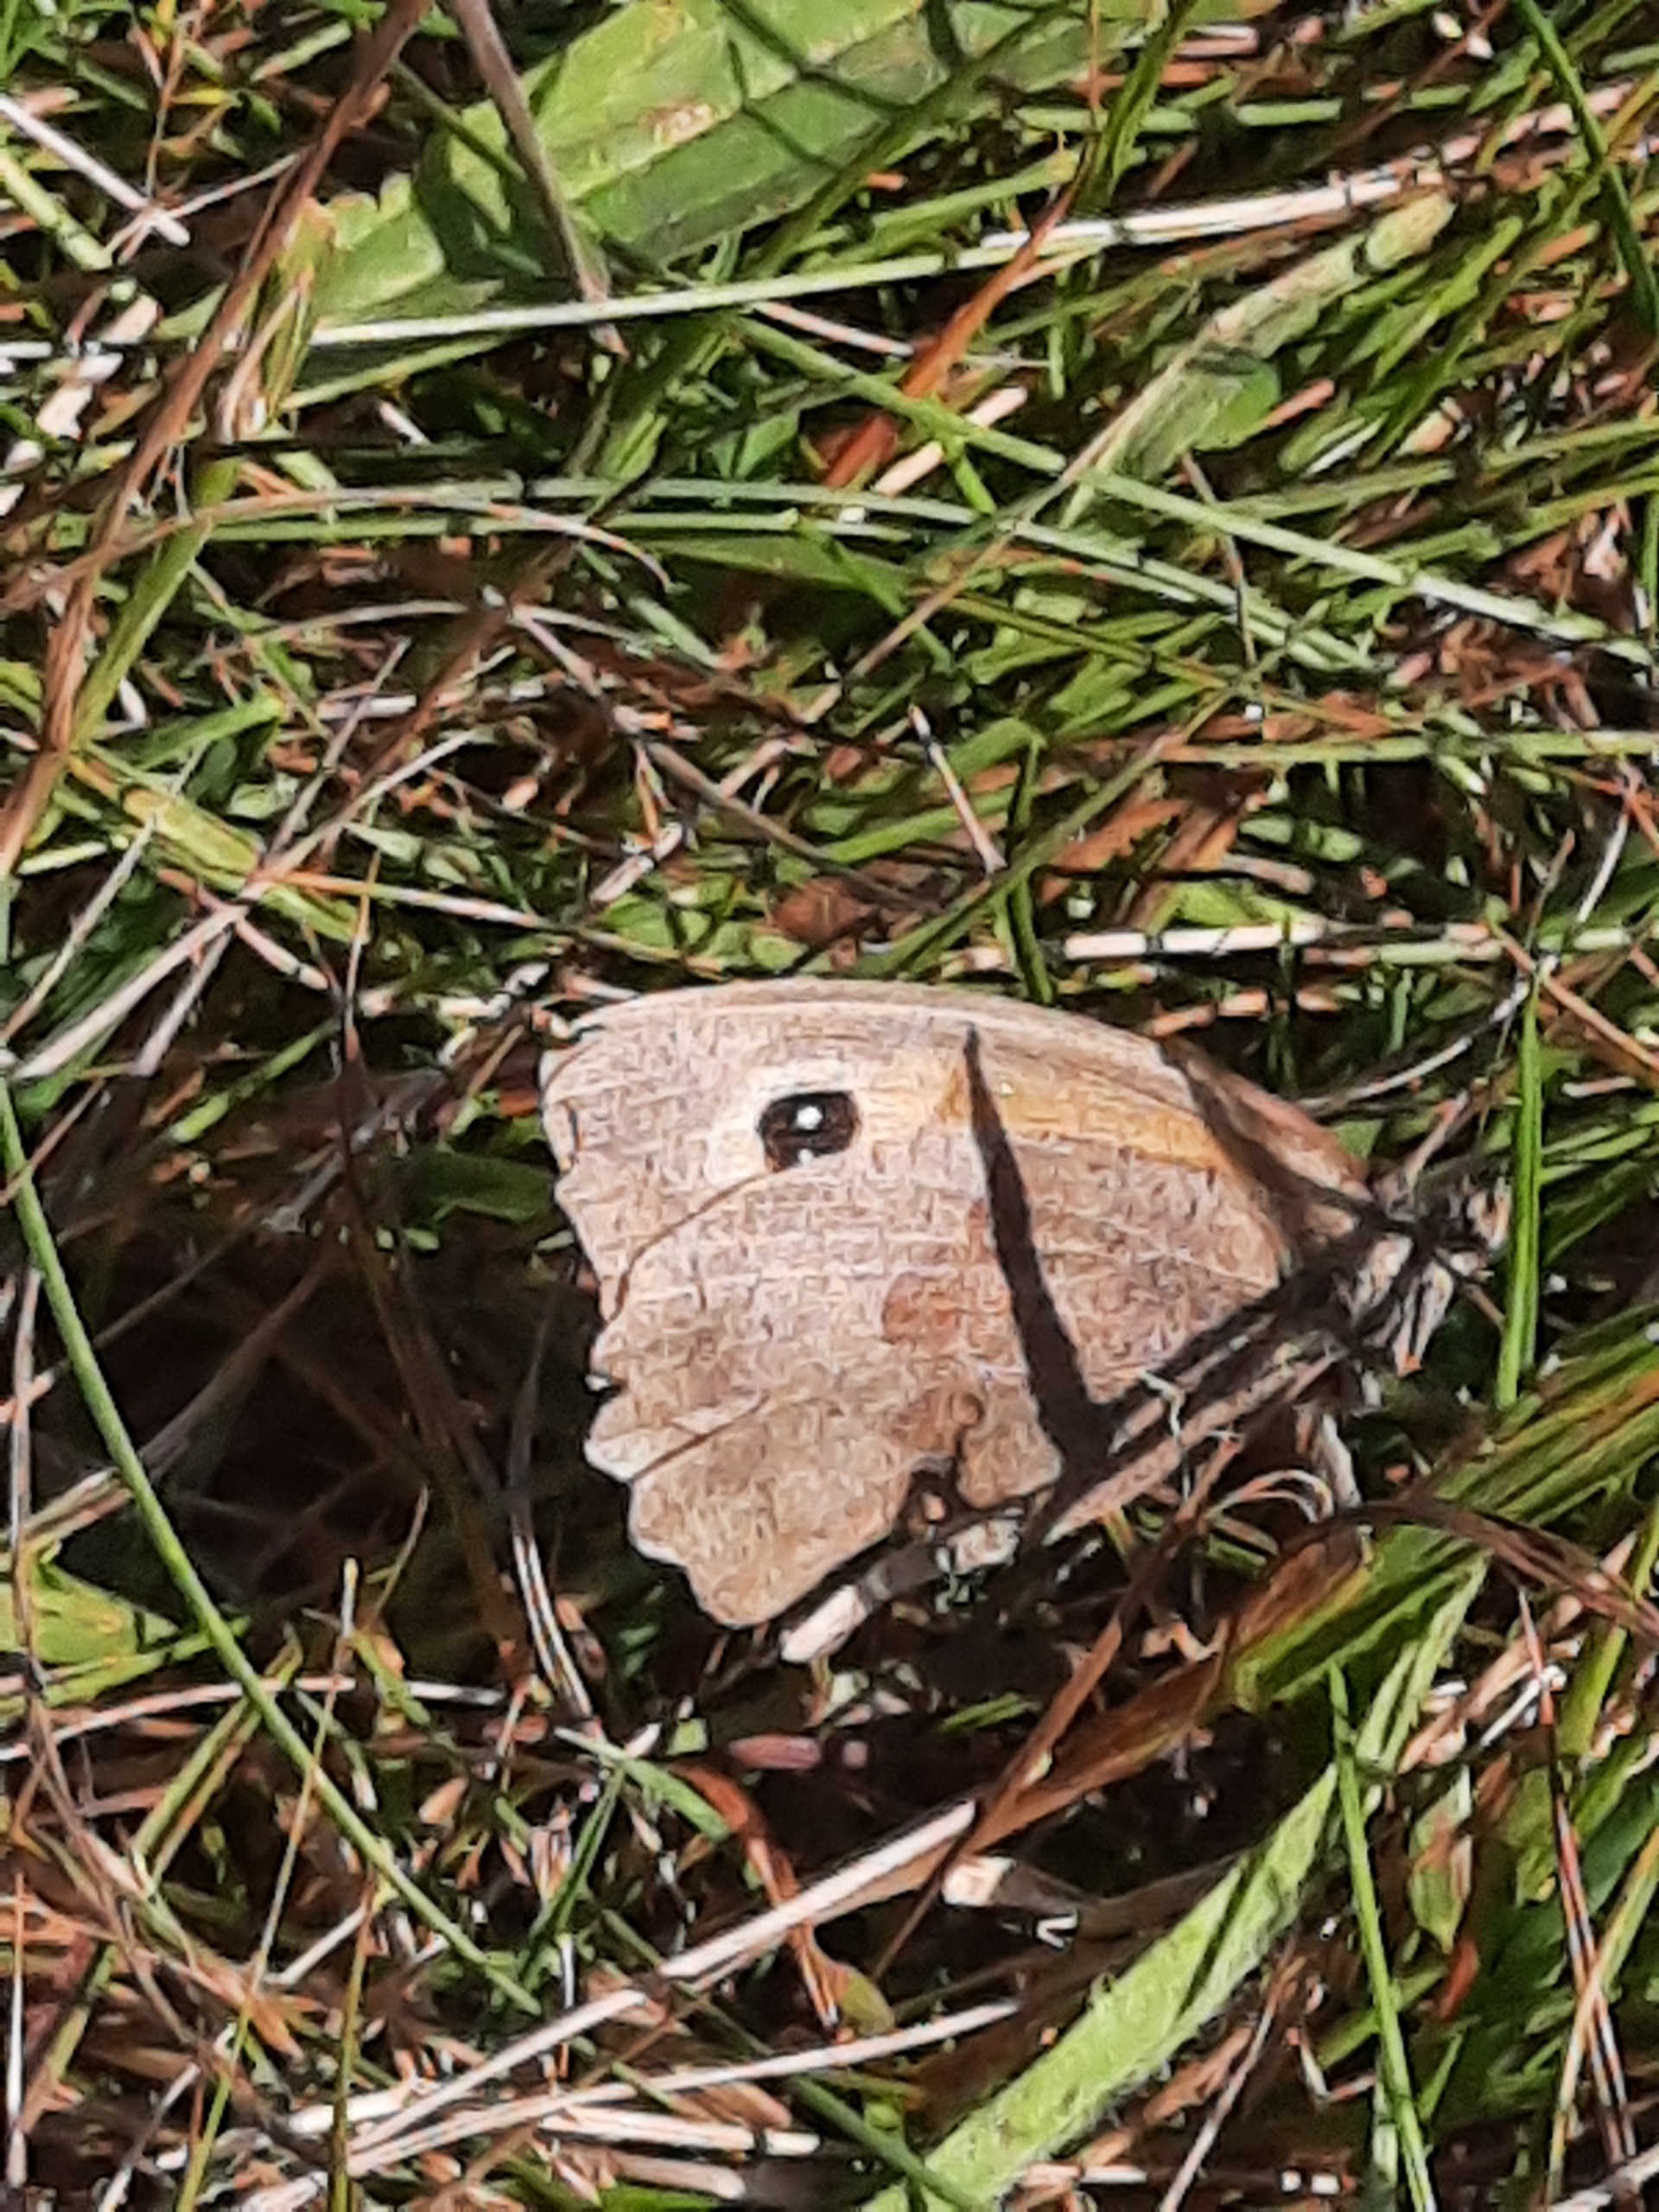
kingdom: Animalia
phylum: Arthropoda
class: Insecta
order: Lepidoptera
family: Nymphalidae
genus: Maniola
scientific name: Maniola jurtina
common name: Græsrandøje
